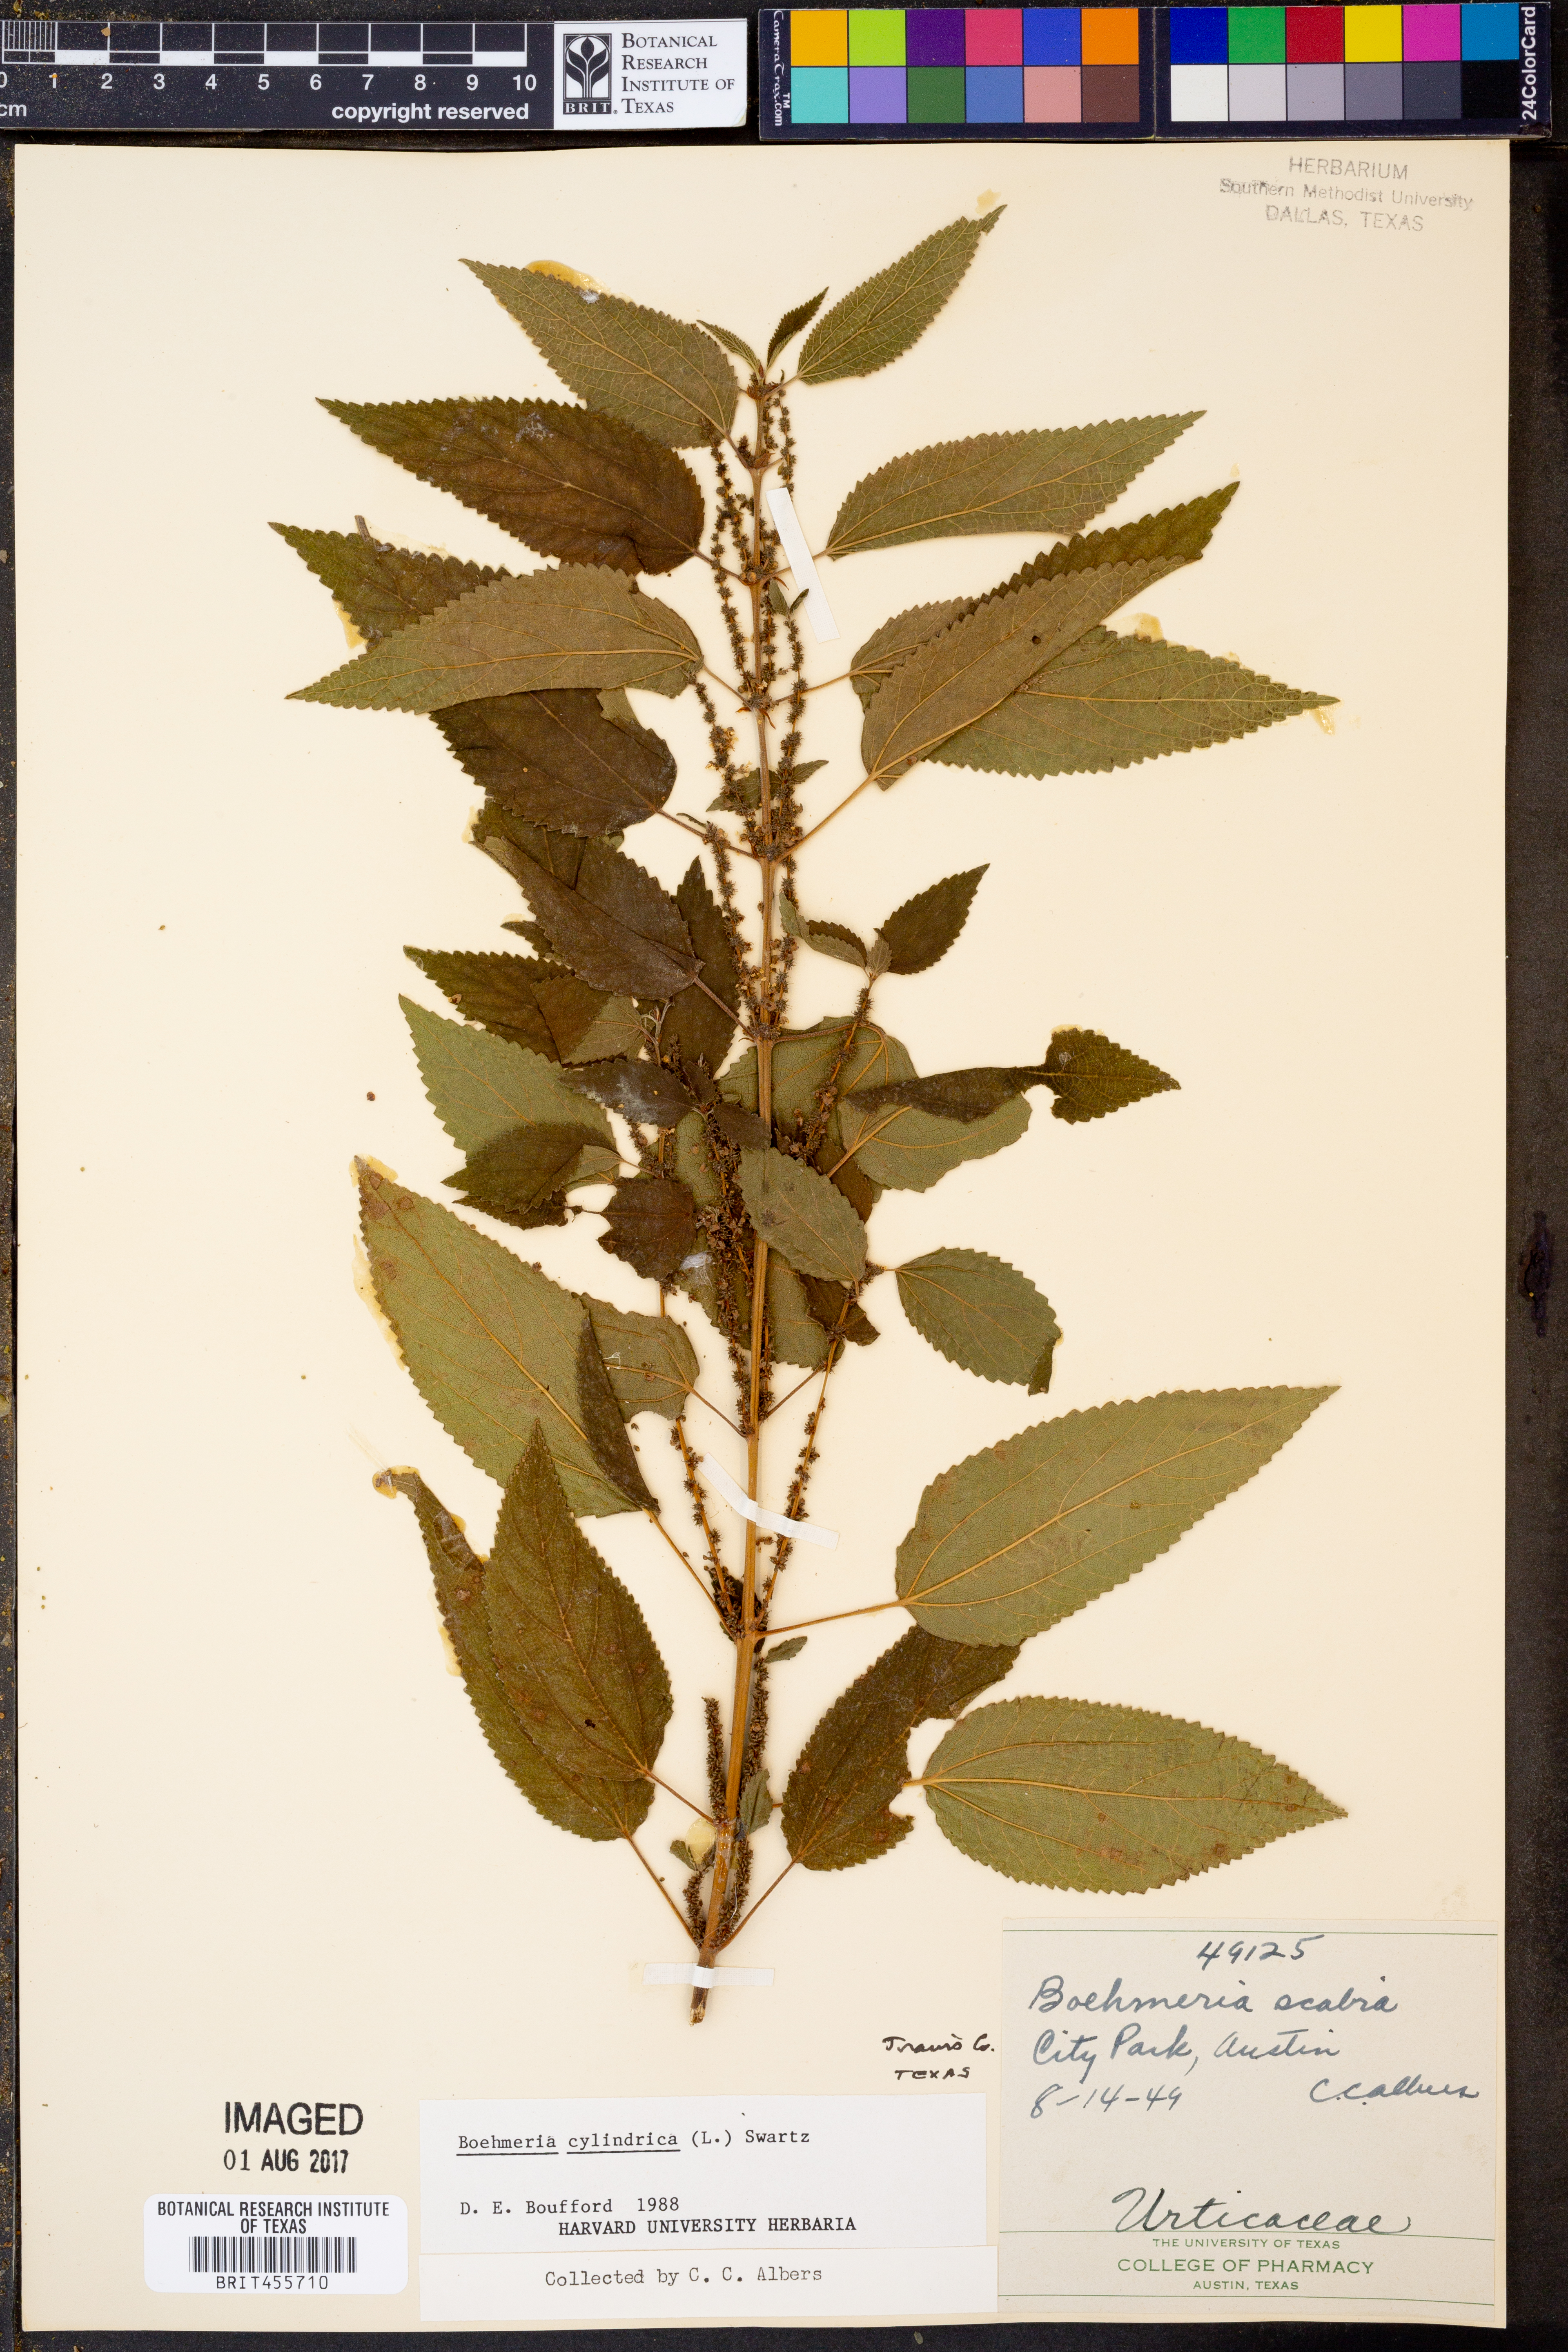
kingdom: Plantae
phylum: Tracheophyta
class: Magnoliopsida
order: Rosales
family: Urticaceae
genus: Boehmeria
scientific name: Boehmeria cylindrica
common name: Bog-hemp
